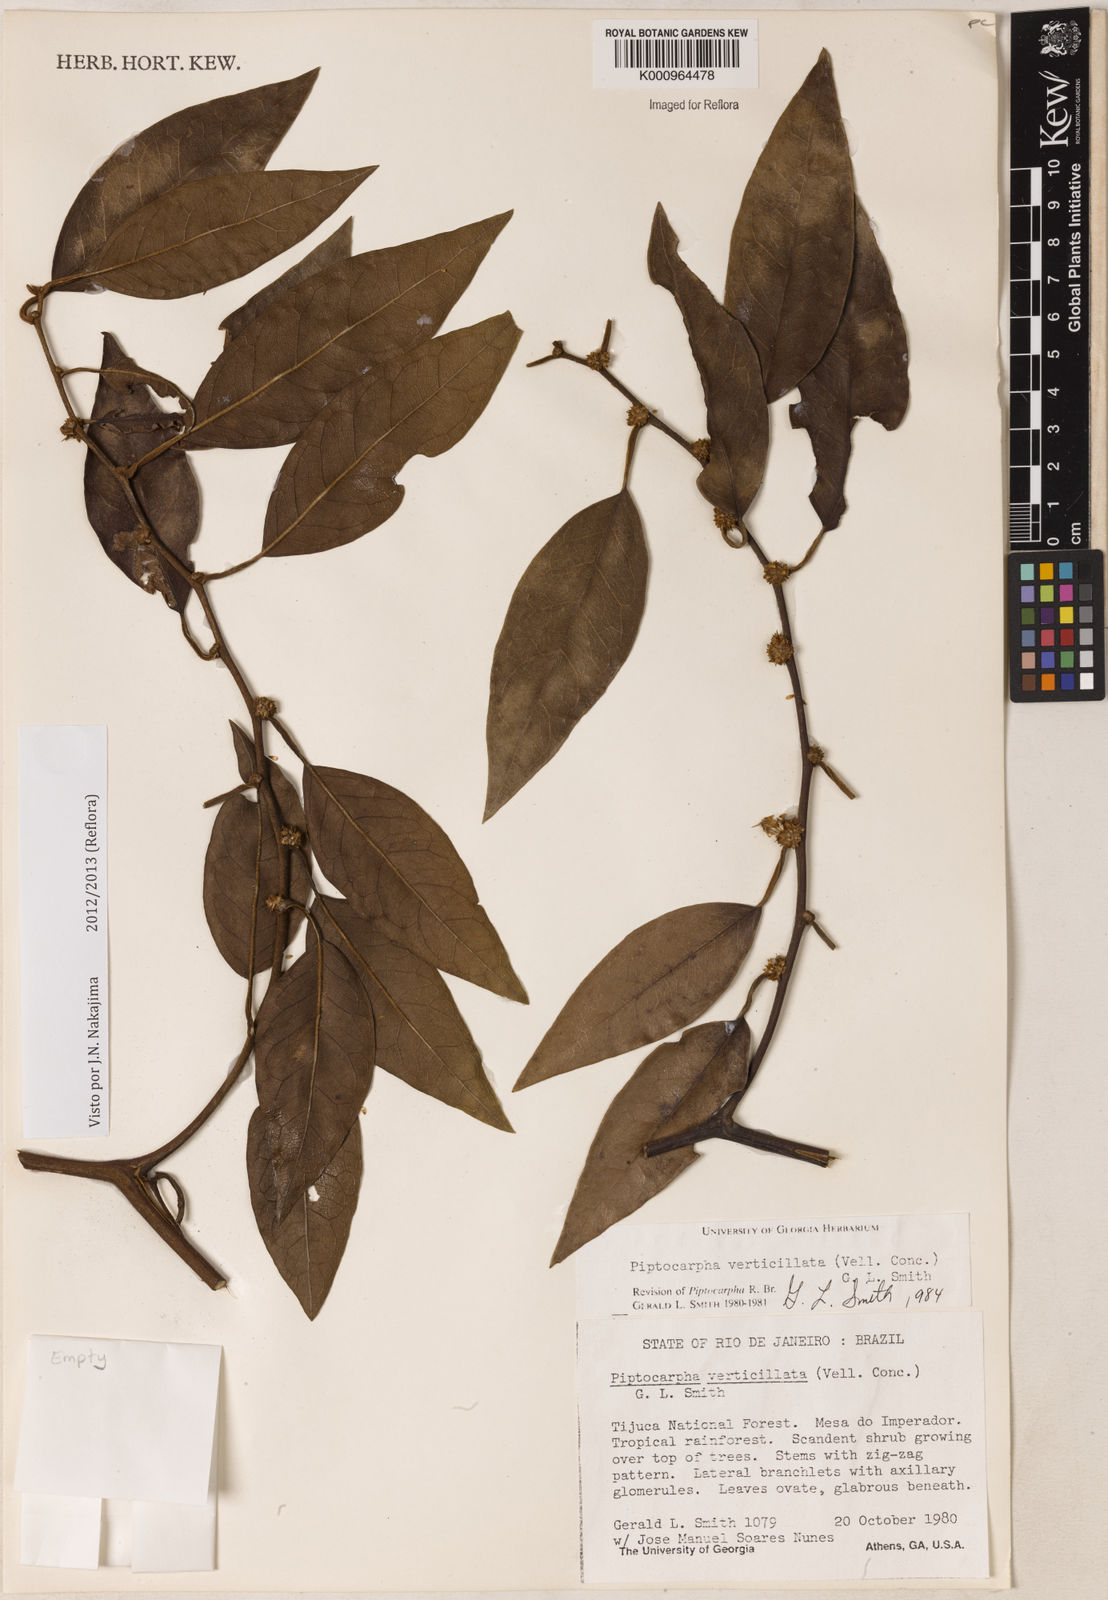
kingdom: Plantae
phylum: Tracheophyta
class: Magnoliopsida
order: Asterales
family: Asteraceae
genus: Piptocarpha
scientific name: Piptocarpha verticillata
